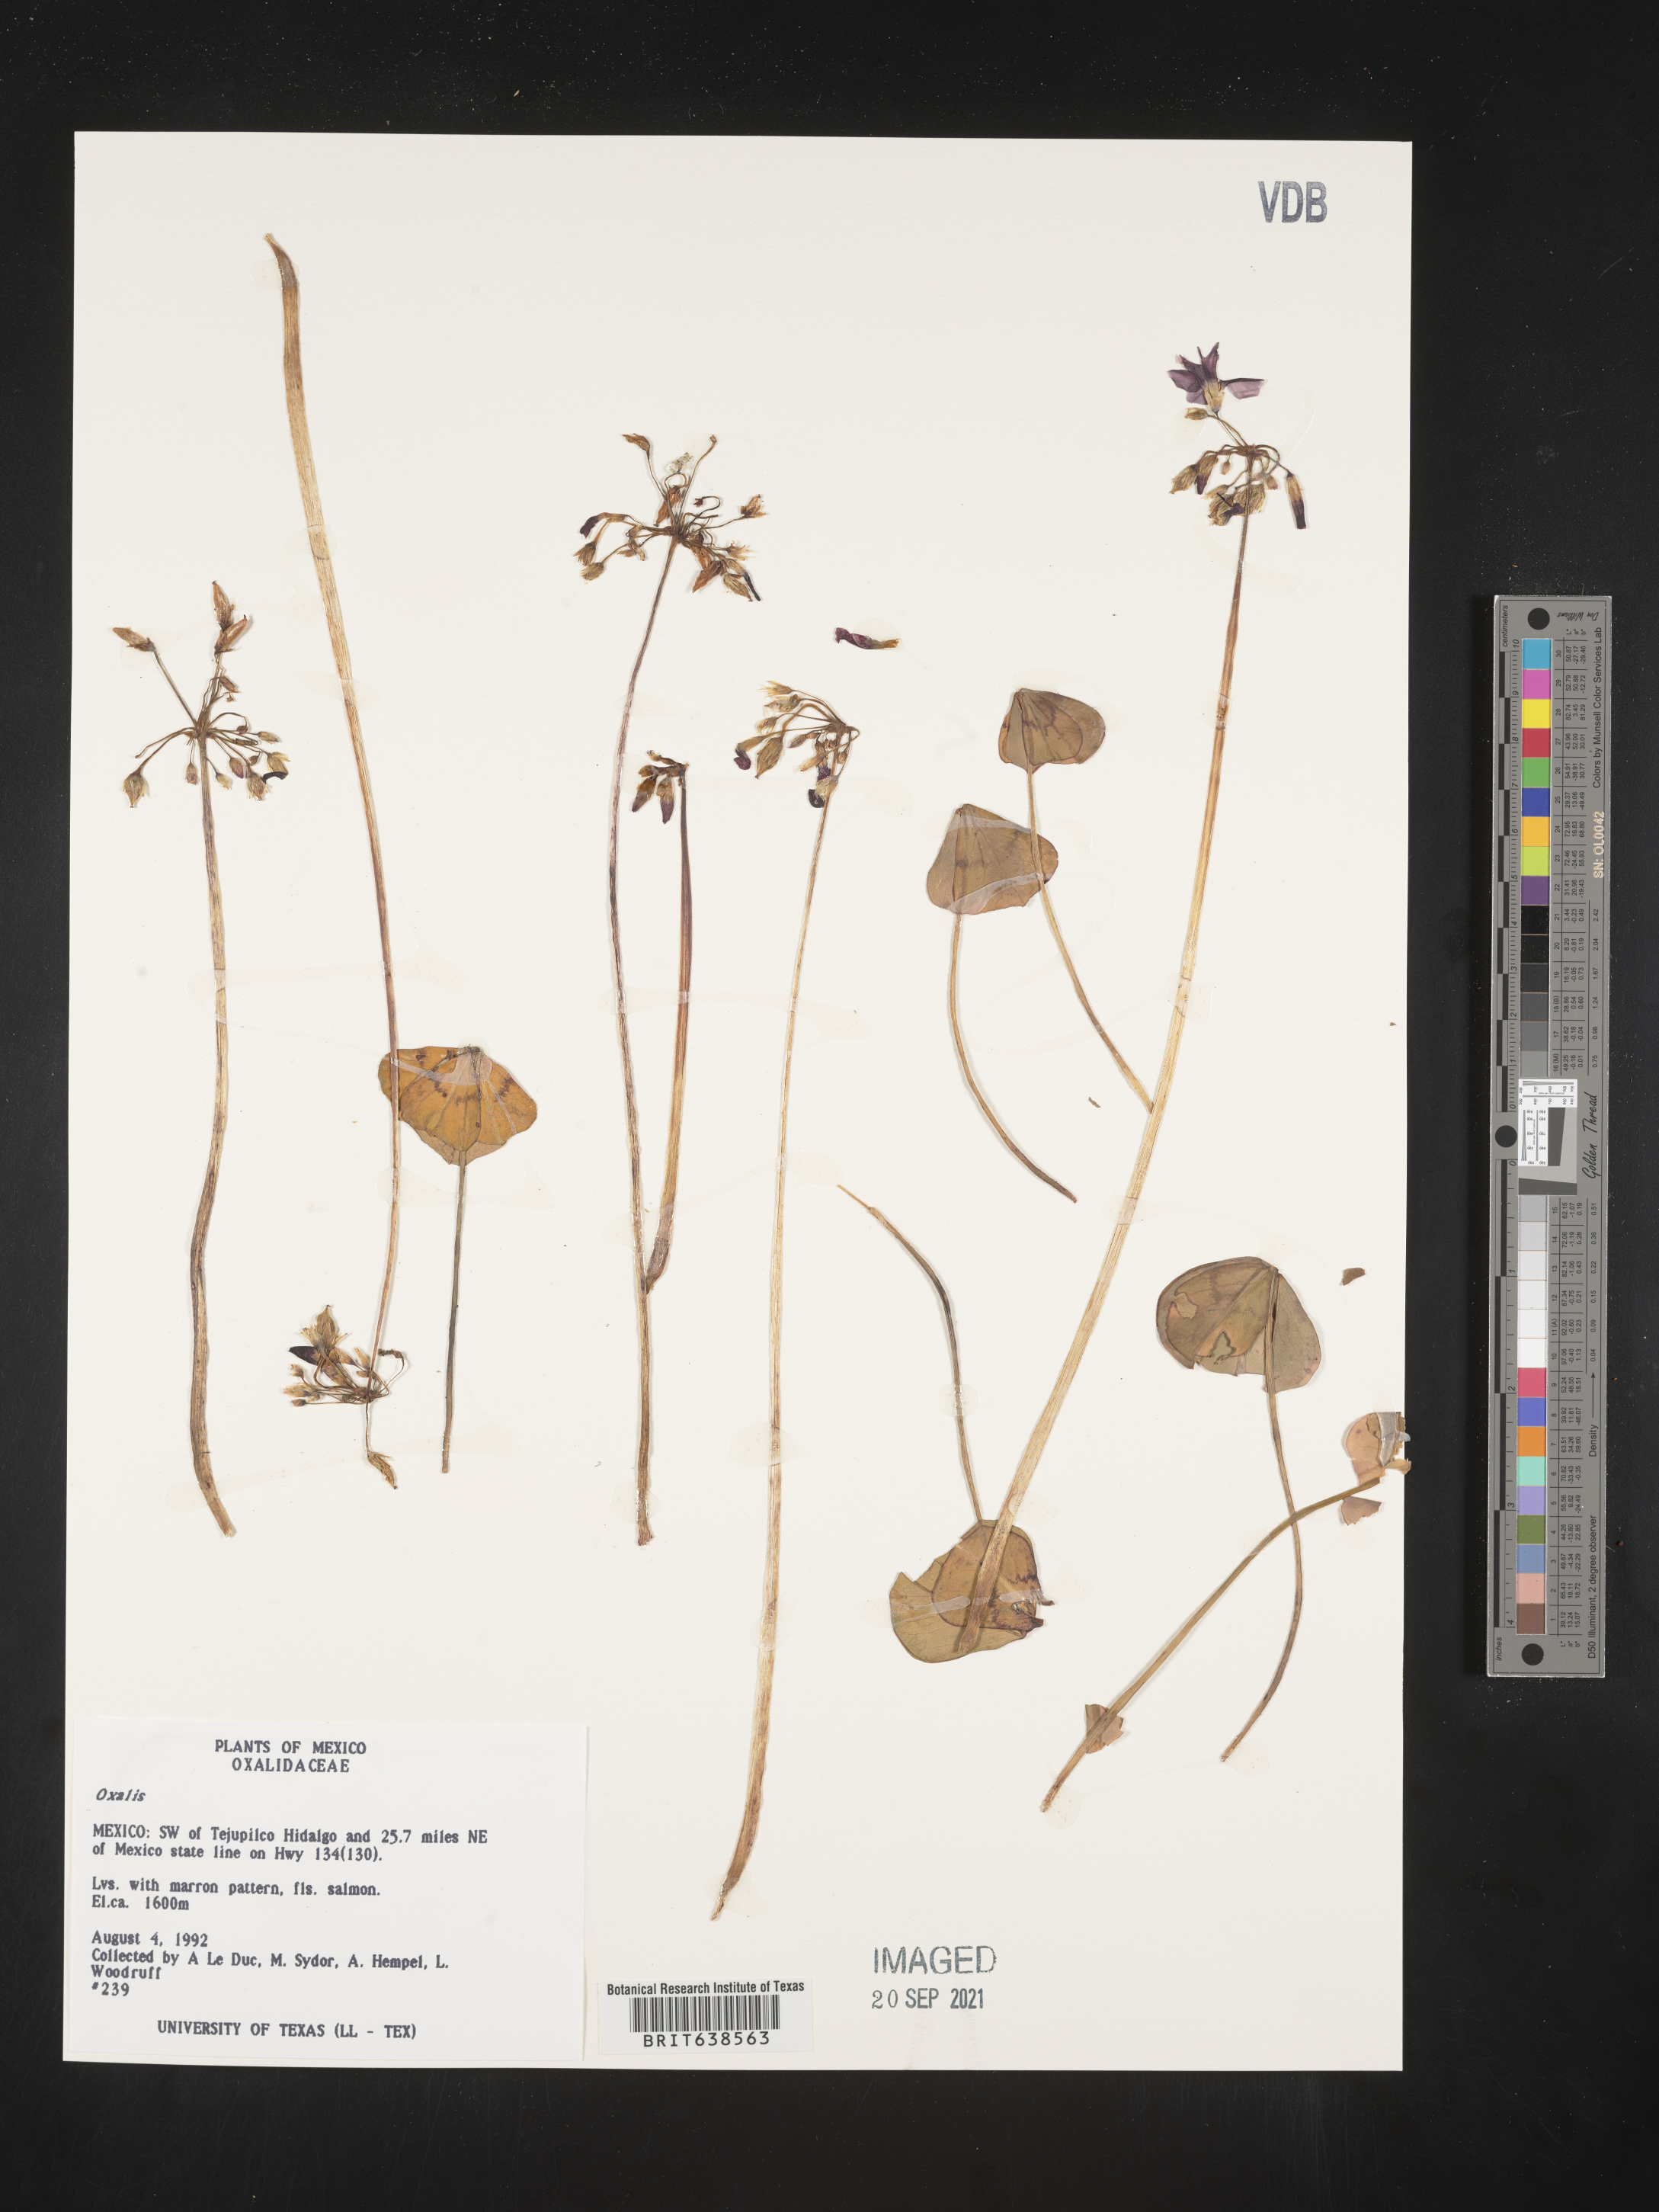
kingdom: Plantae
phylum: Tracheophyta
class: Magnoliopsida
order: Oxalidales
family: Oxalidaceae
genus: Oxalis
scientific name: Oxalis
